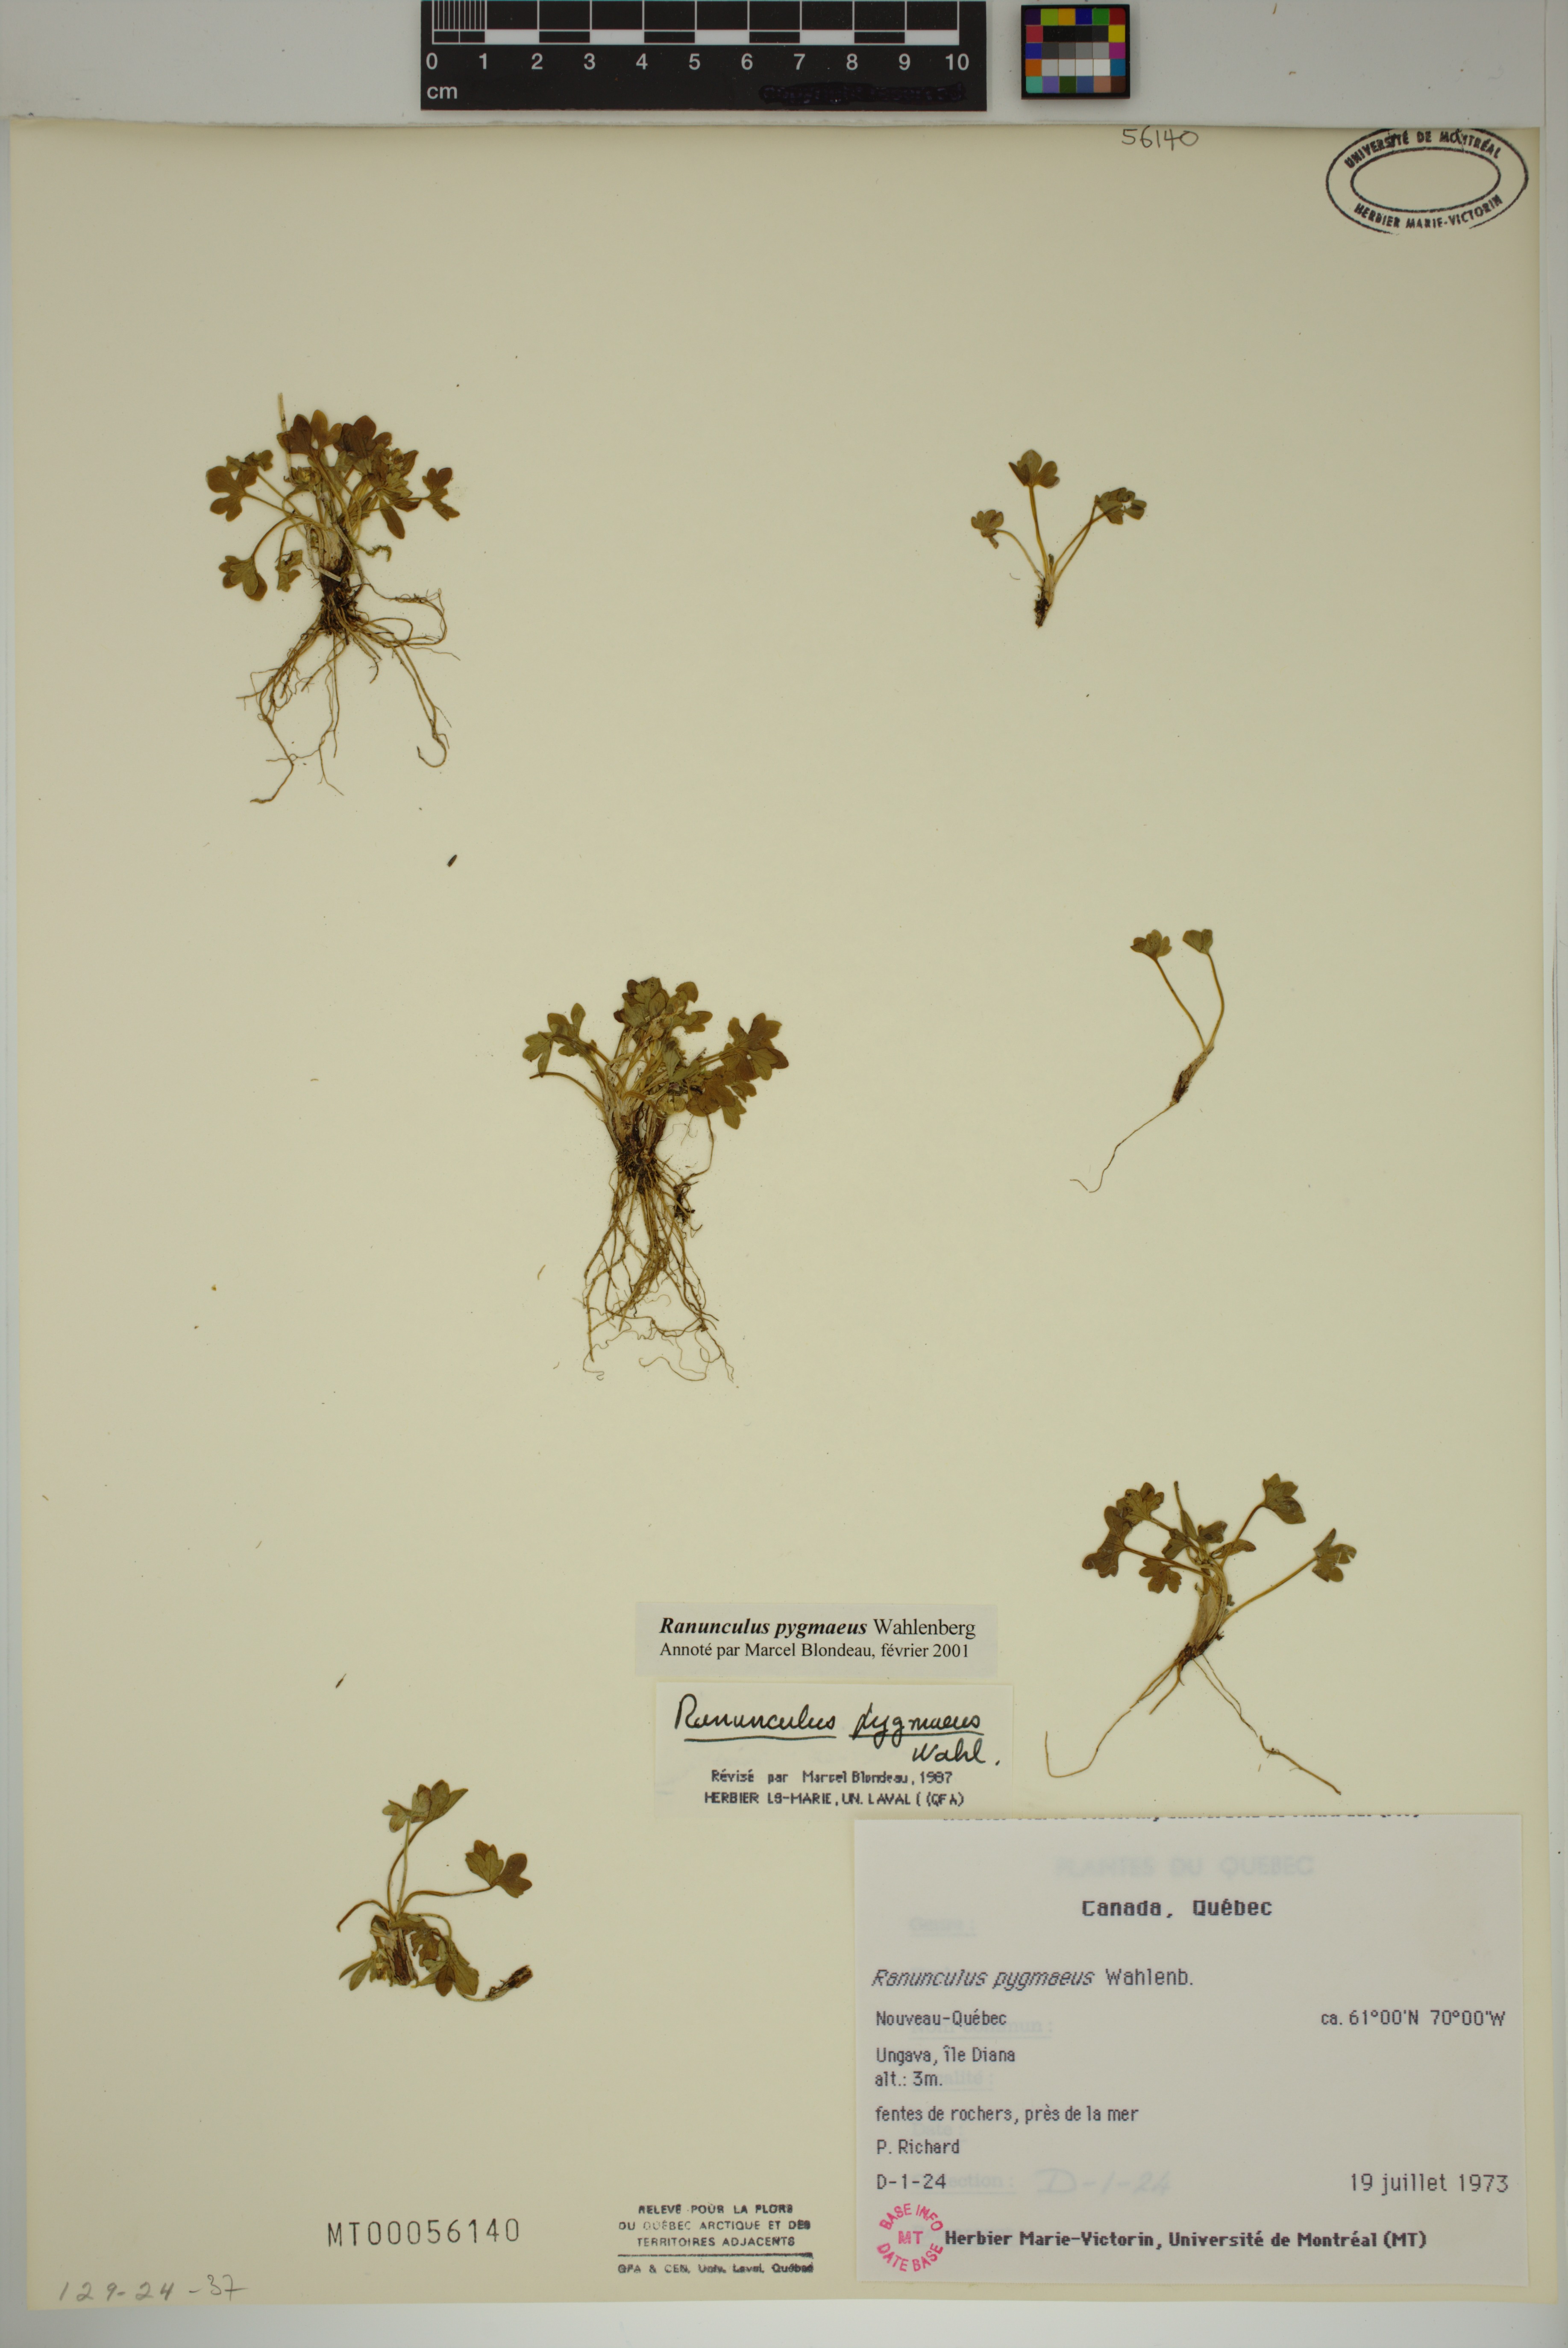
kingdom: Plantae
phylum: Tracheophyta
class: Magnoliopsida
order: Ranunculales
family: Ranunculaceae
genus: Ranunculus
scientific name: Ranunculus pygmaeus
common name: Dwarf buttercup
